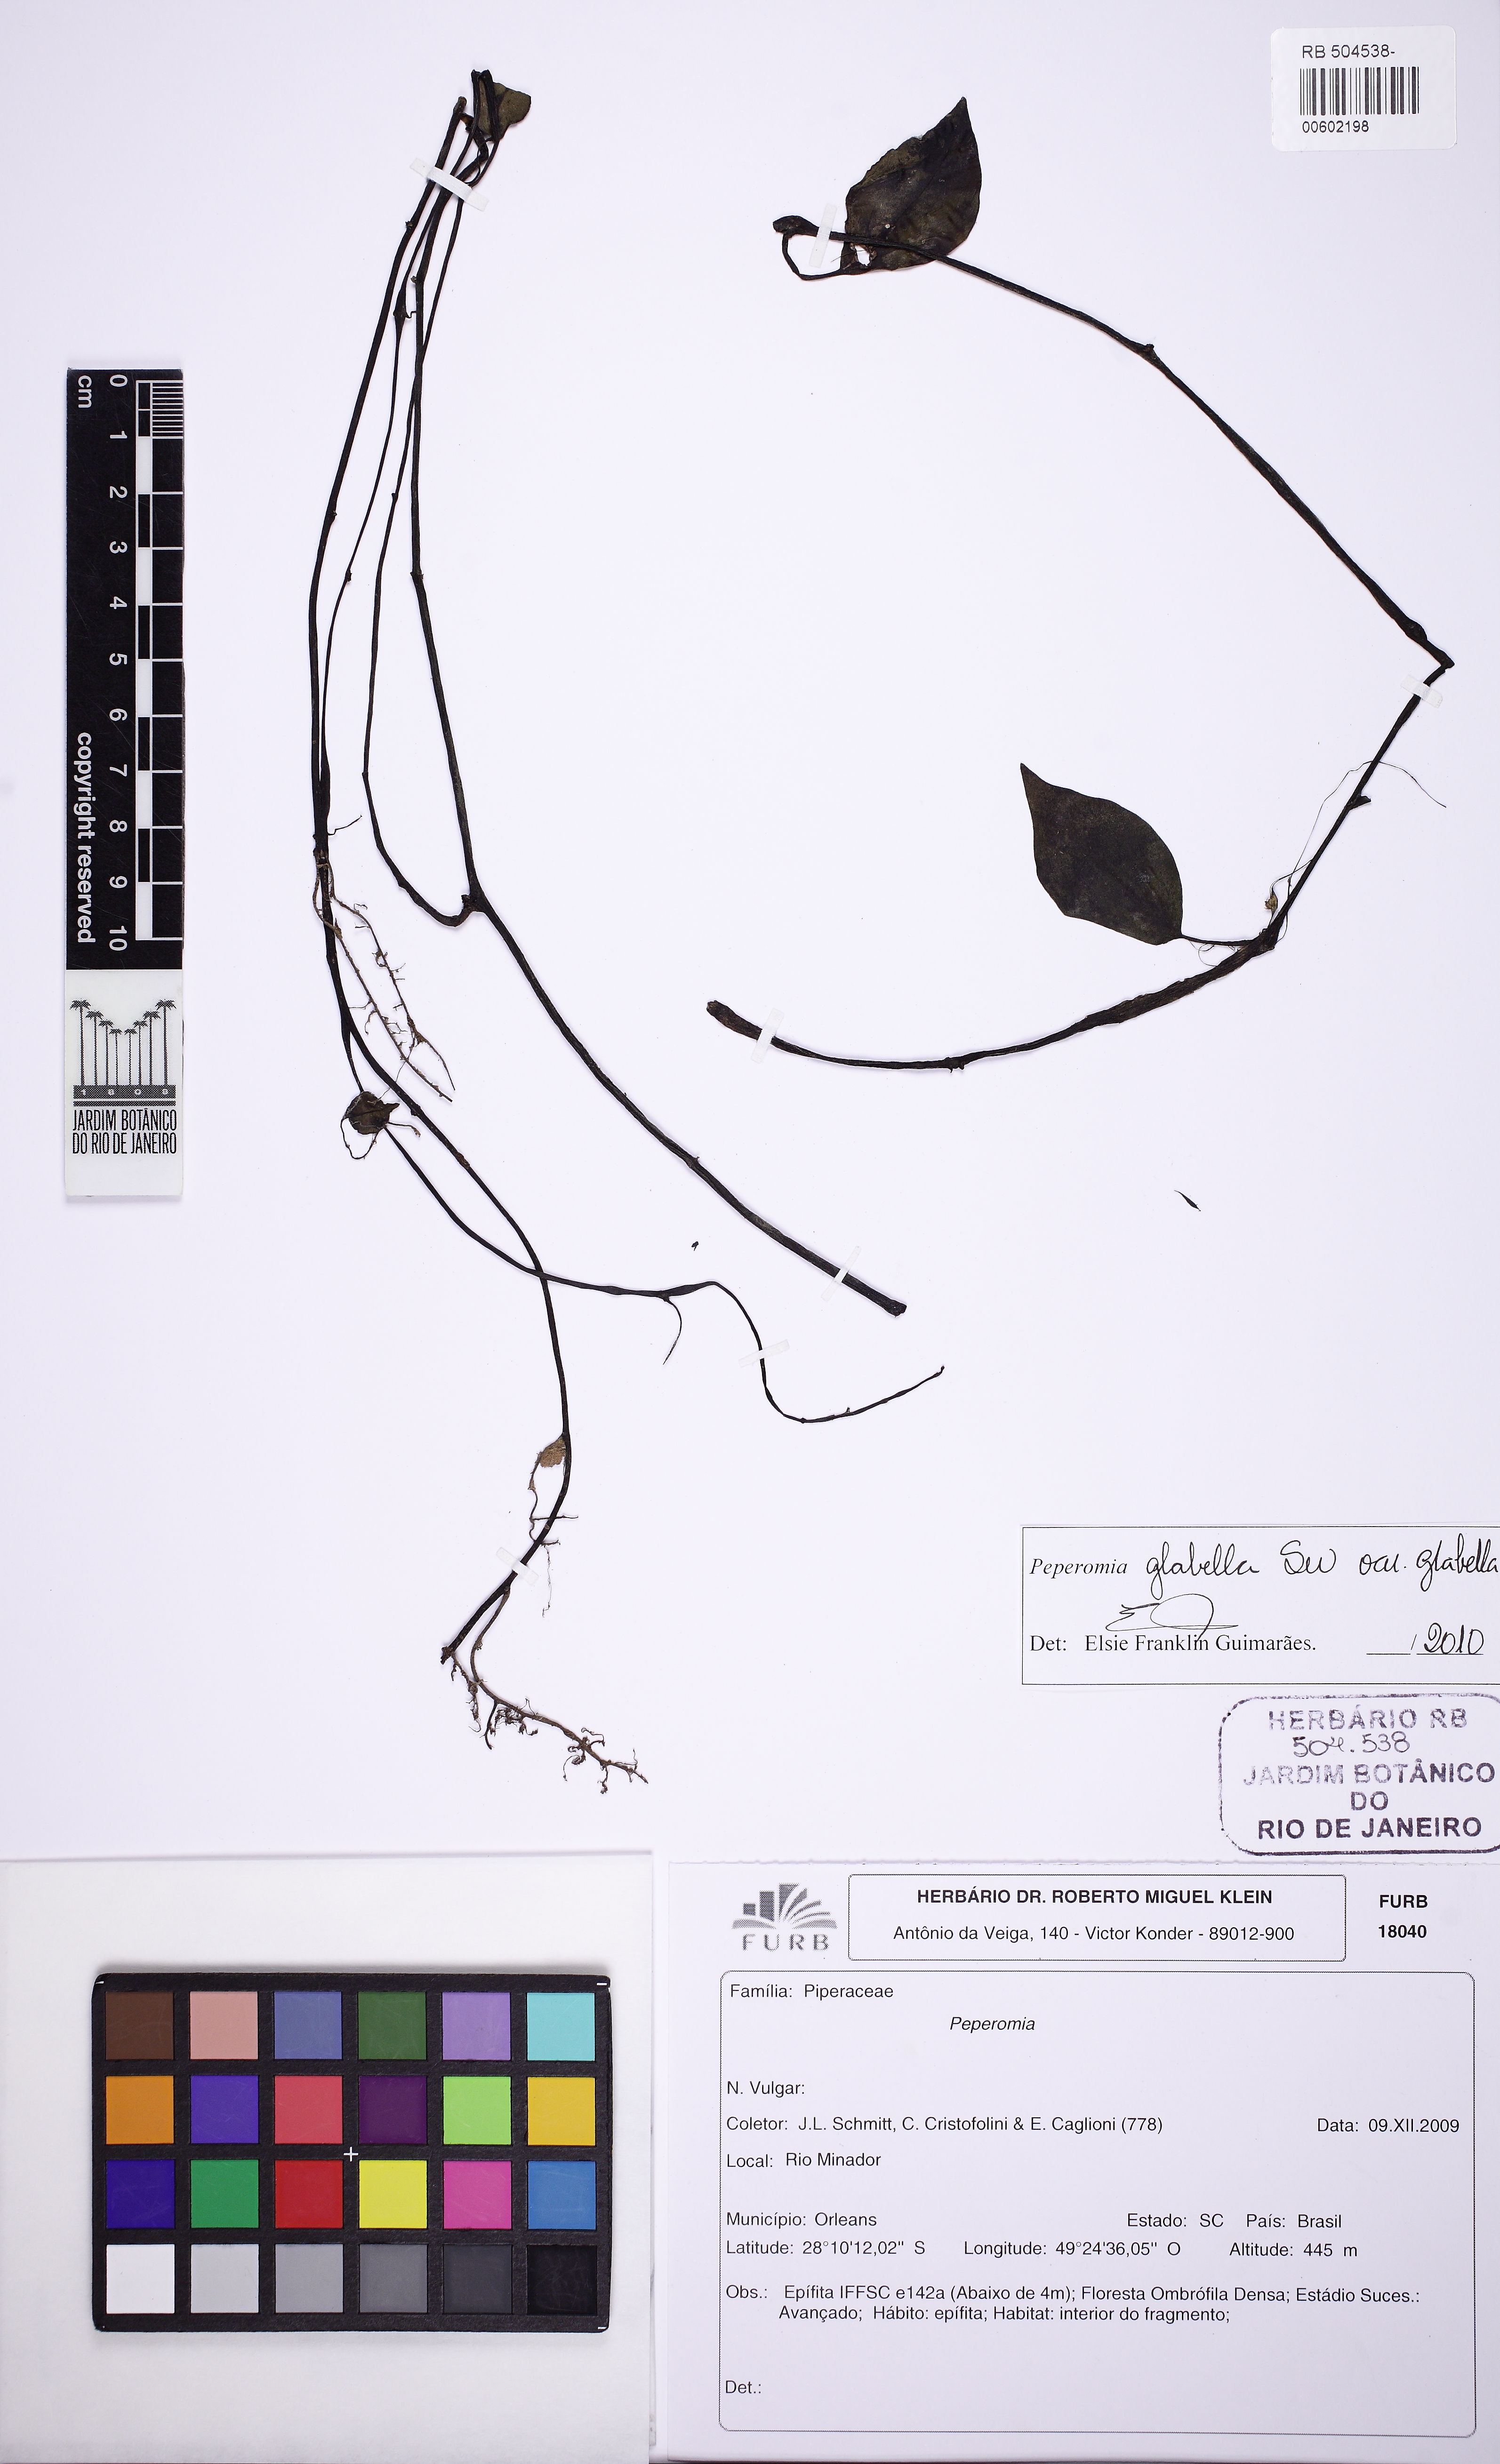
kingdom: Plantae
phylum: Tracheophyta
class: Magnoliopsida
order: Piperales
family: Piperaceae
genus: Peperomia
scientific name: Peperomia glabella
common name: Cypress peperomia
